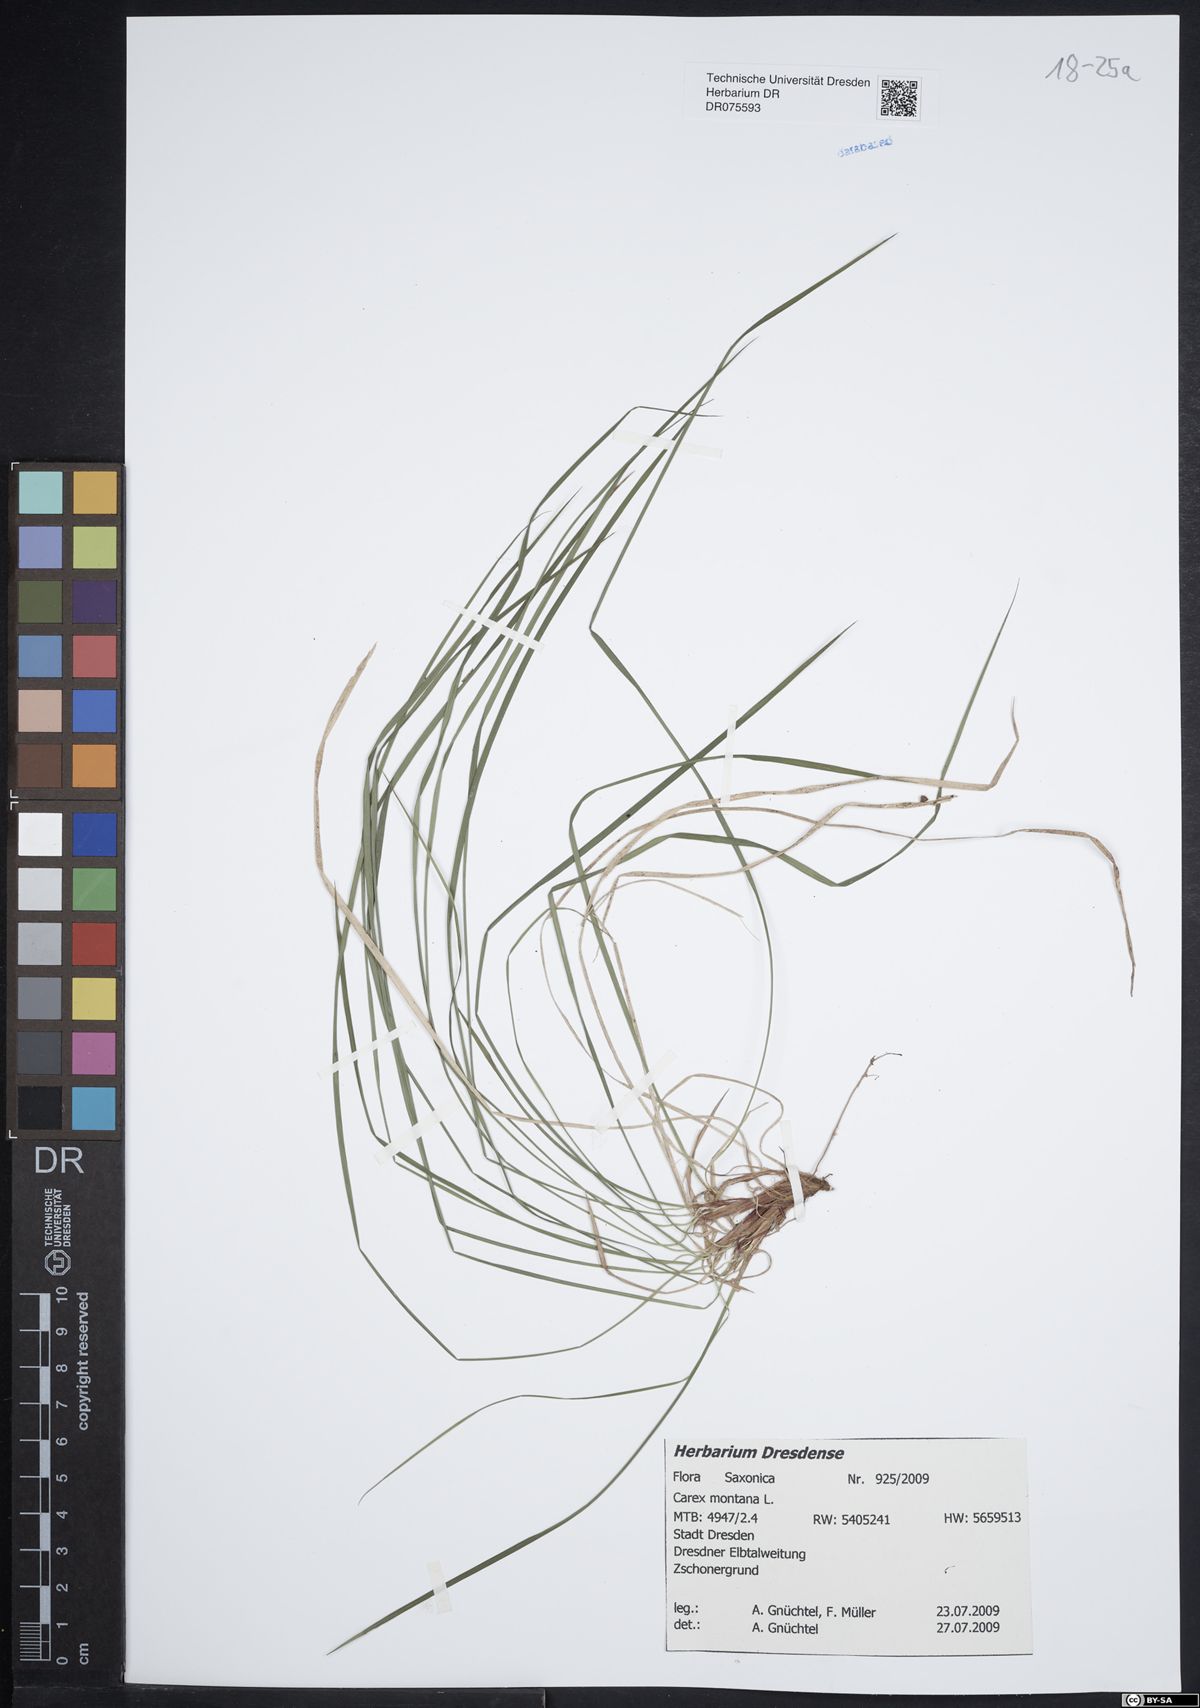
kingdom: Plantae
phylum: Tracheophyta
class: Liliopsida
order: Poales
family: Cyperaceae
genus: Carex
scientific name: Carex montana
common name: Soft-leaved sedge
